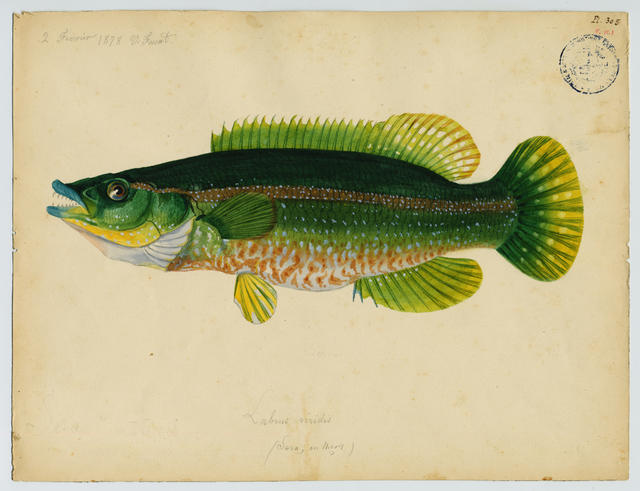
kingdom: Animalia
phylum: Chordata
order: Perciformes
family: Labridae
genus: Labrus
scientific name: Labrus viridis
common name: Green wrasse
